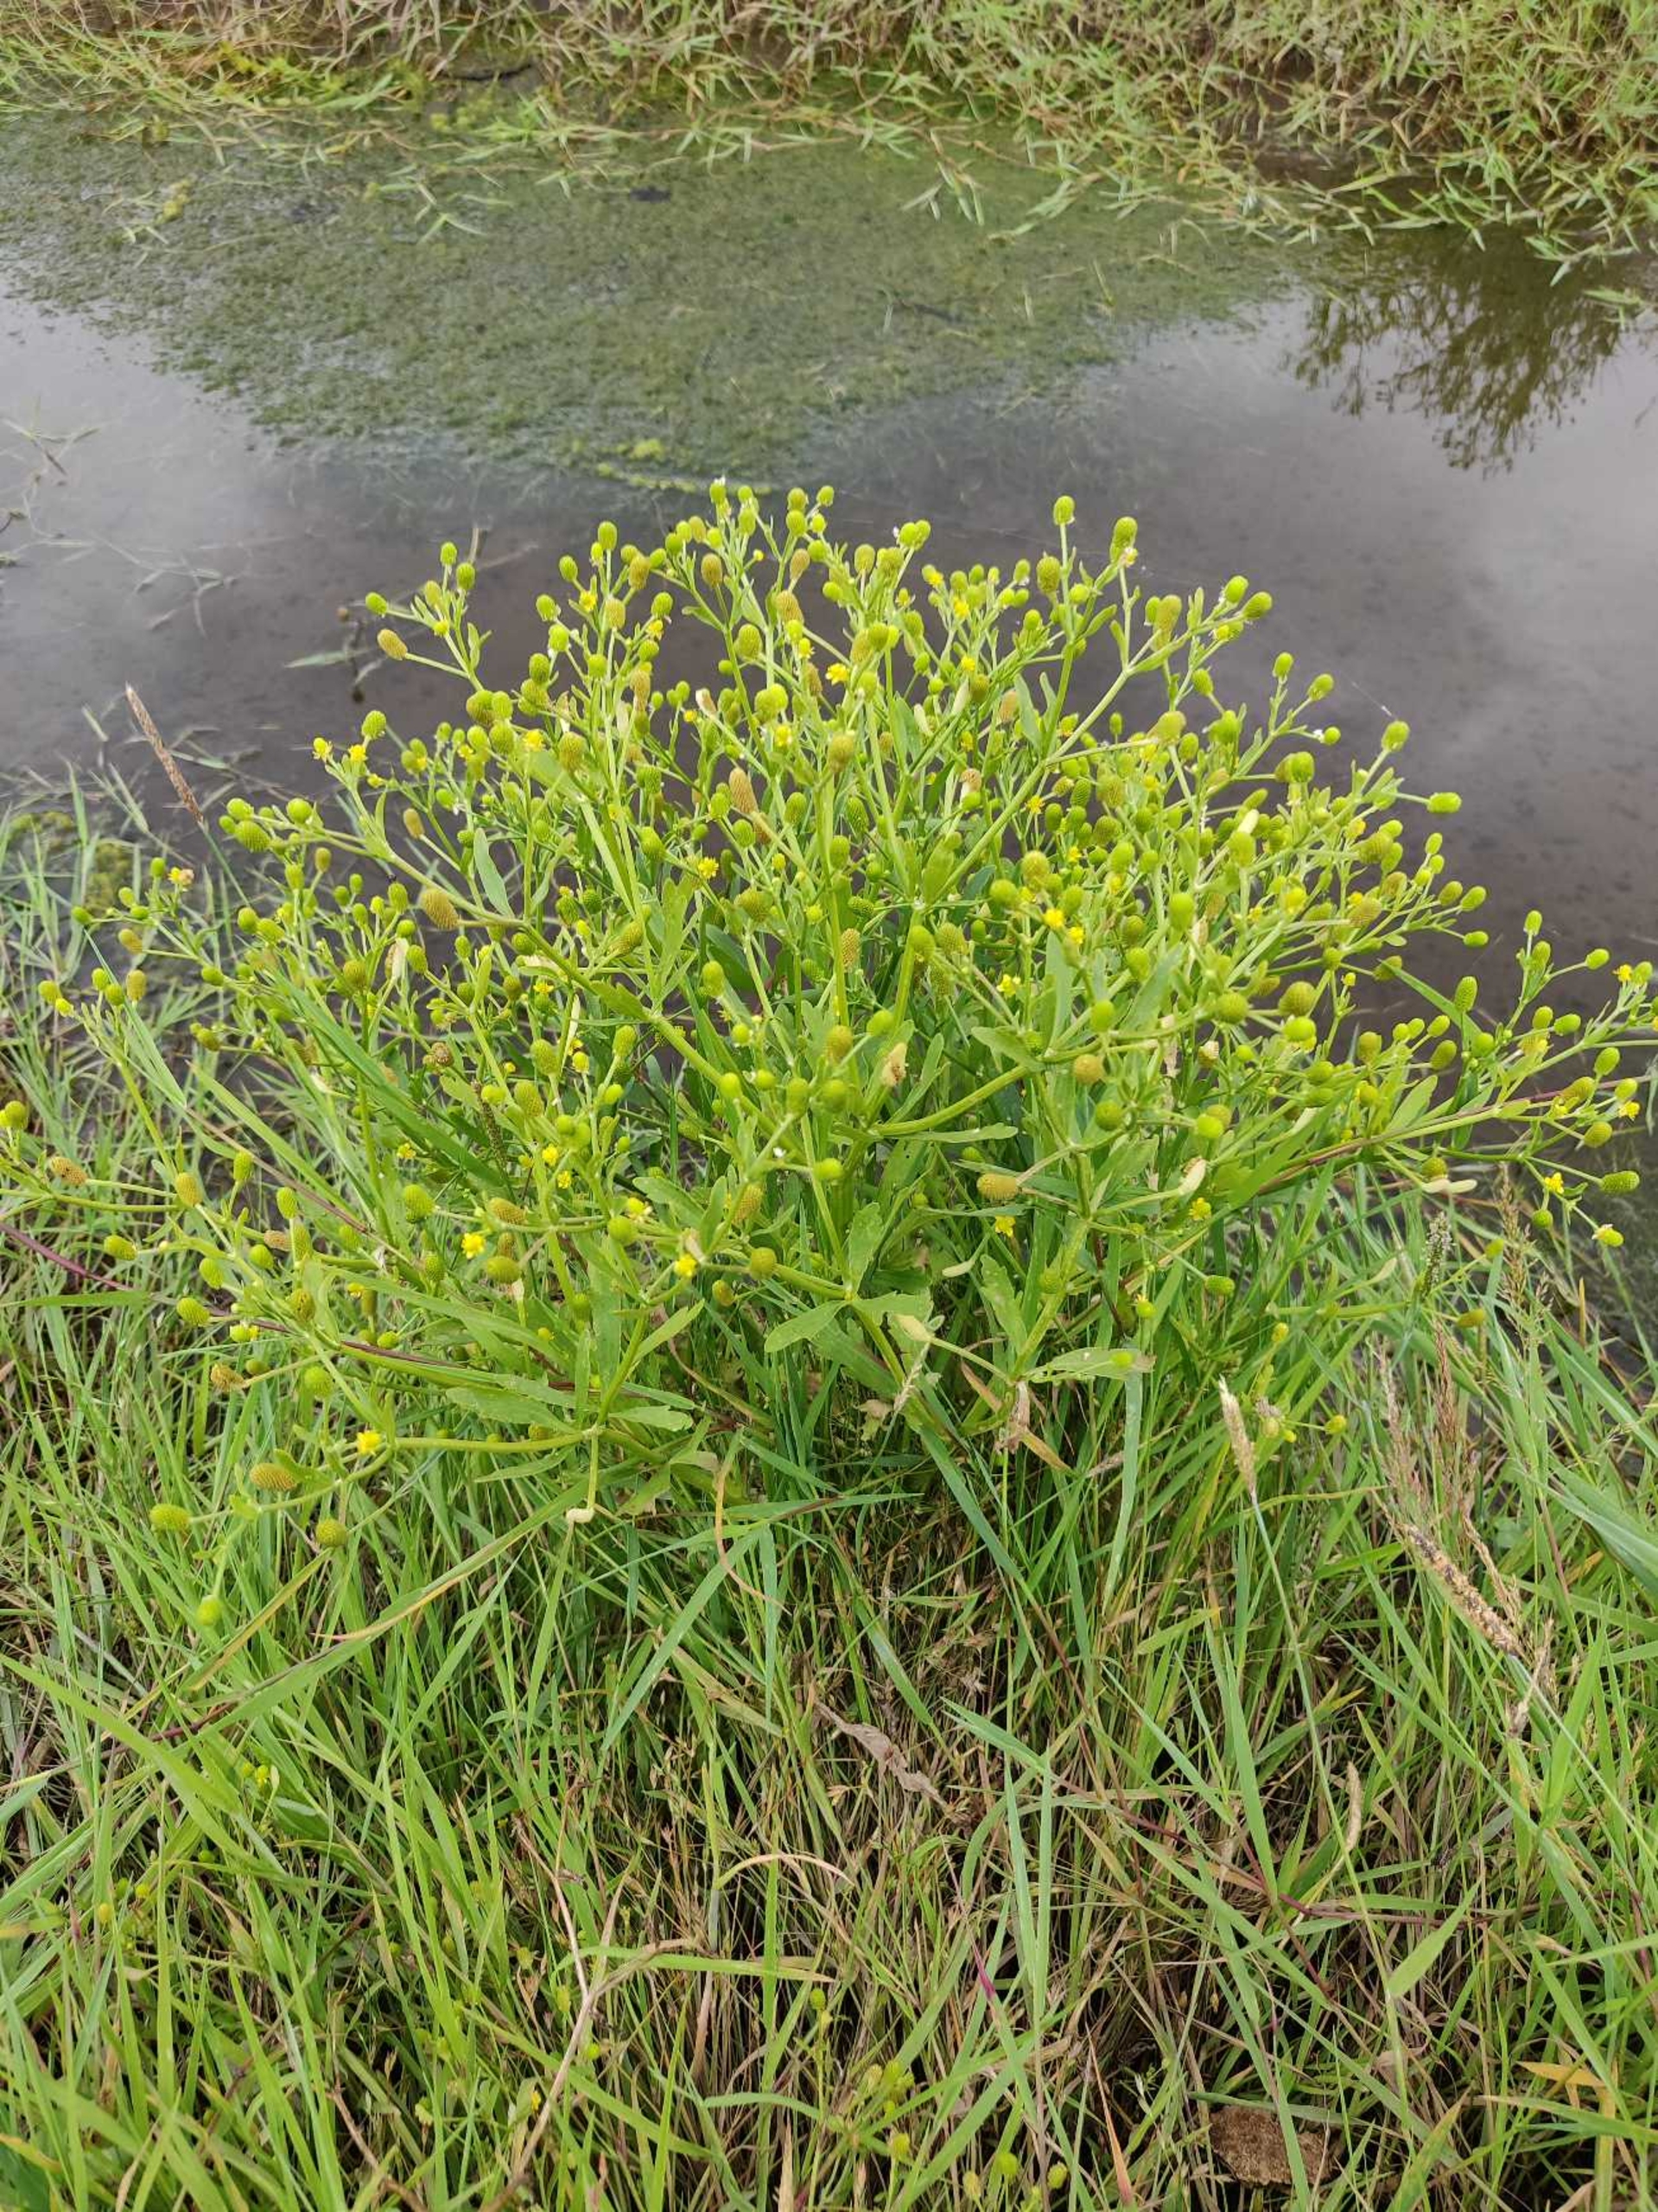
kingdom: Plantae
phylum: Tracheophyta
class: Magnoliopsida
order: Ranunculales
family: Ranunculaceae
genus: Ranunculus
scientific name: Ranunculus sceleratus
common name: Tigger-ranunkel
